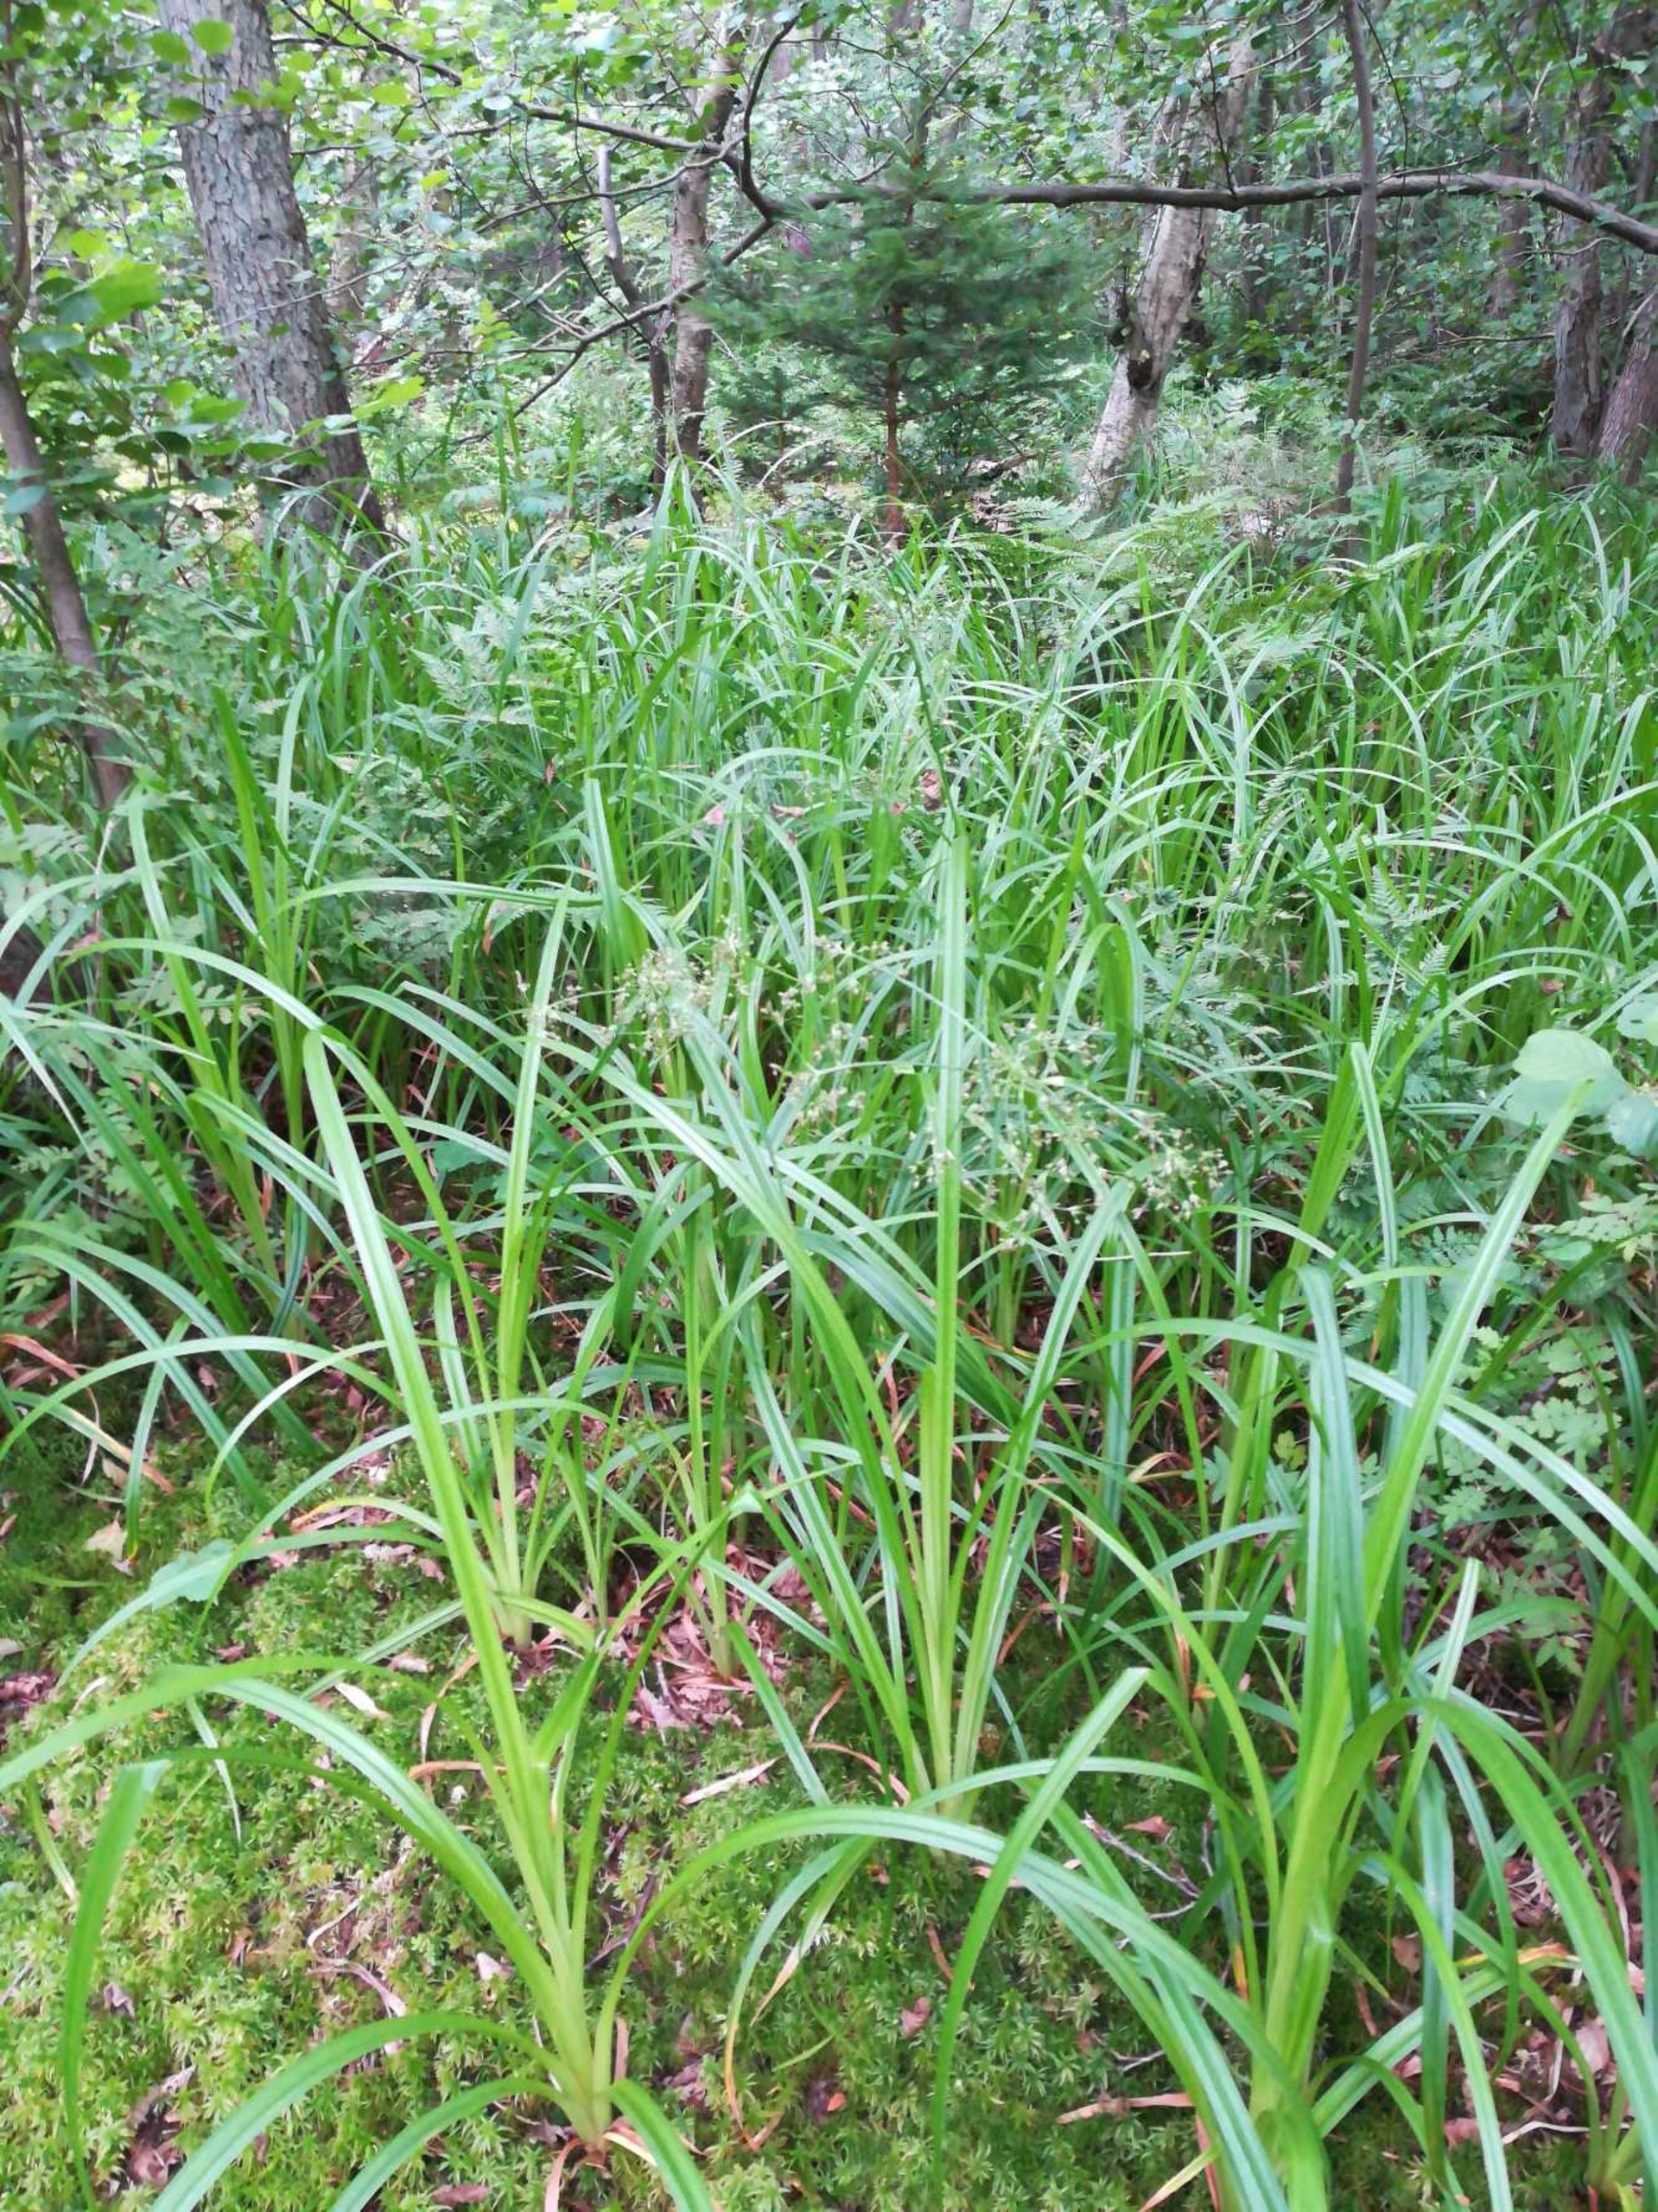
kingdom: Plantae
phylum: Tracheophyta
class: Liliopsida
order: Poales
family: Cyperaceae
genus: Scirpus
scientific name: Scirpus sylvaticus
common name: Skov-kogleaks
